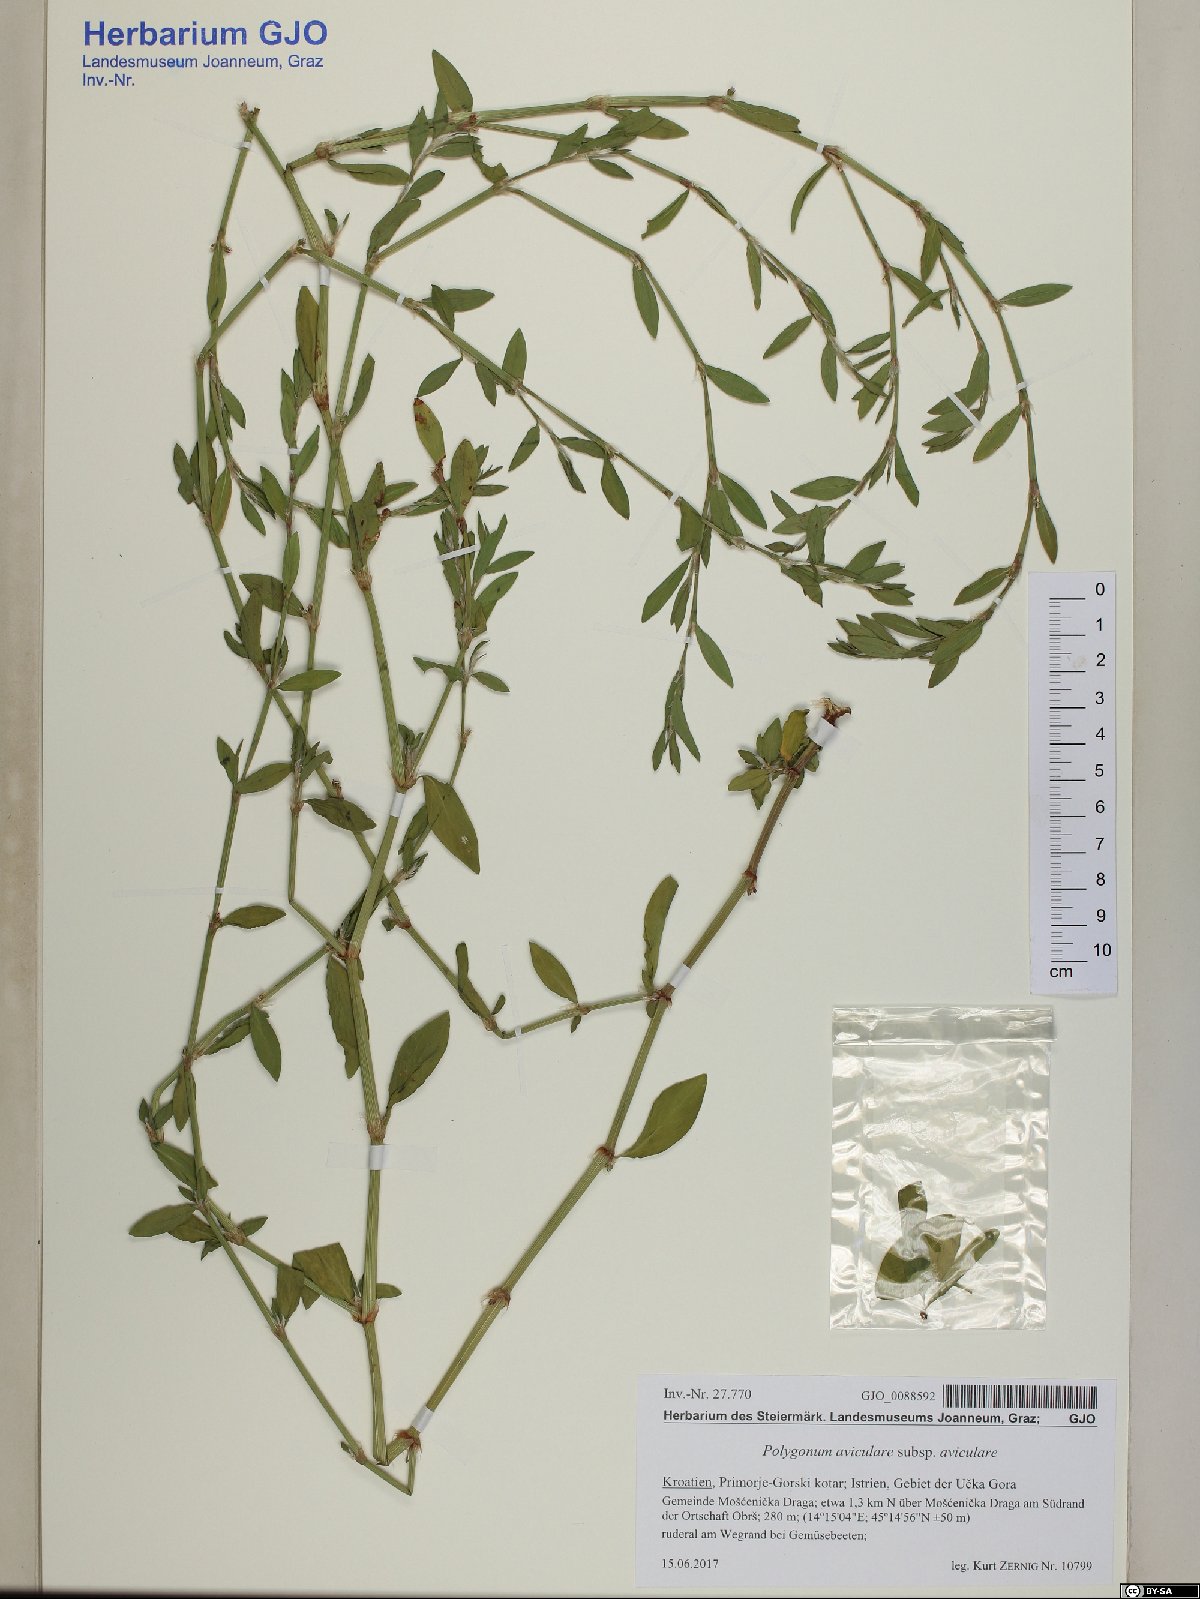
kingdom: Plantae
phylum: Tracheophyta
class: Magnoliopsida
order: Caryophyllales
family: Polygonaceae
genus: Polygonum
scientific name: Polygonum aviculare
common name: Prostrate knotweed
